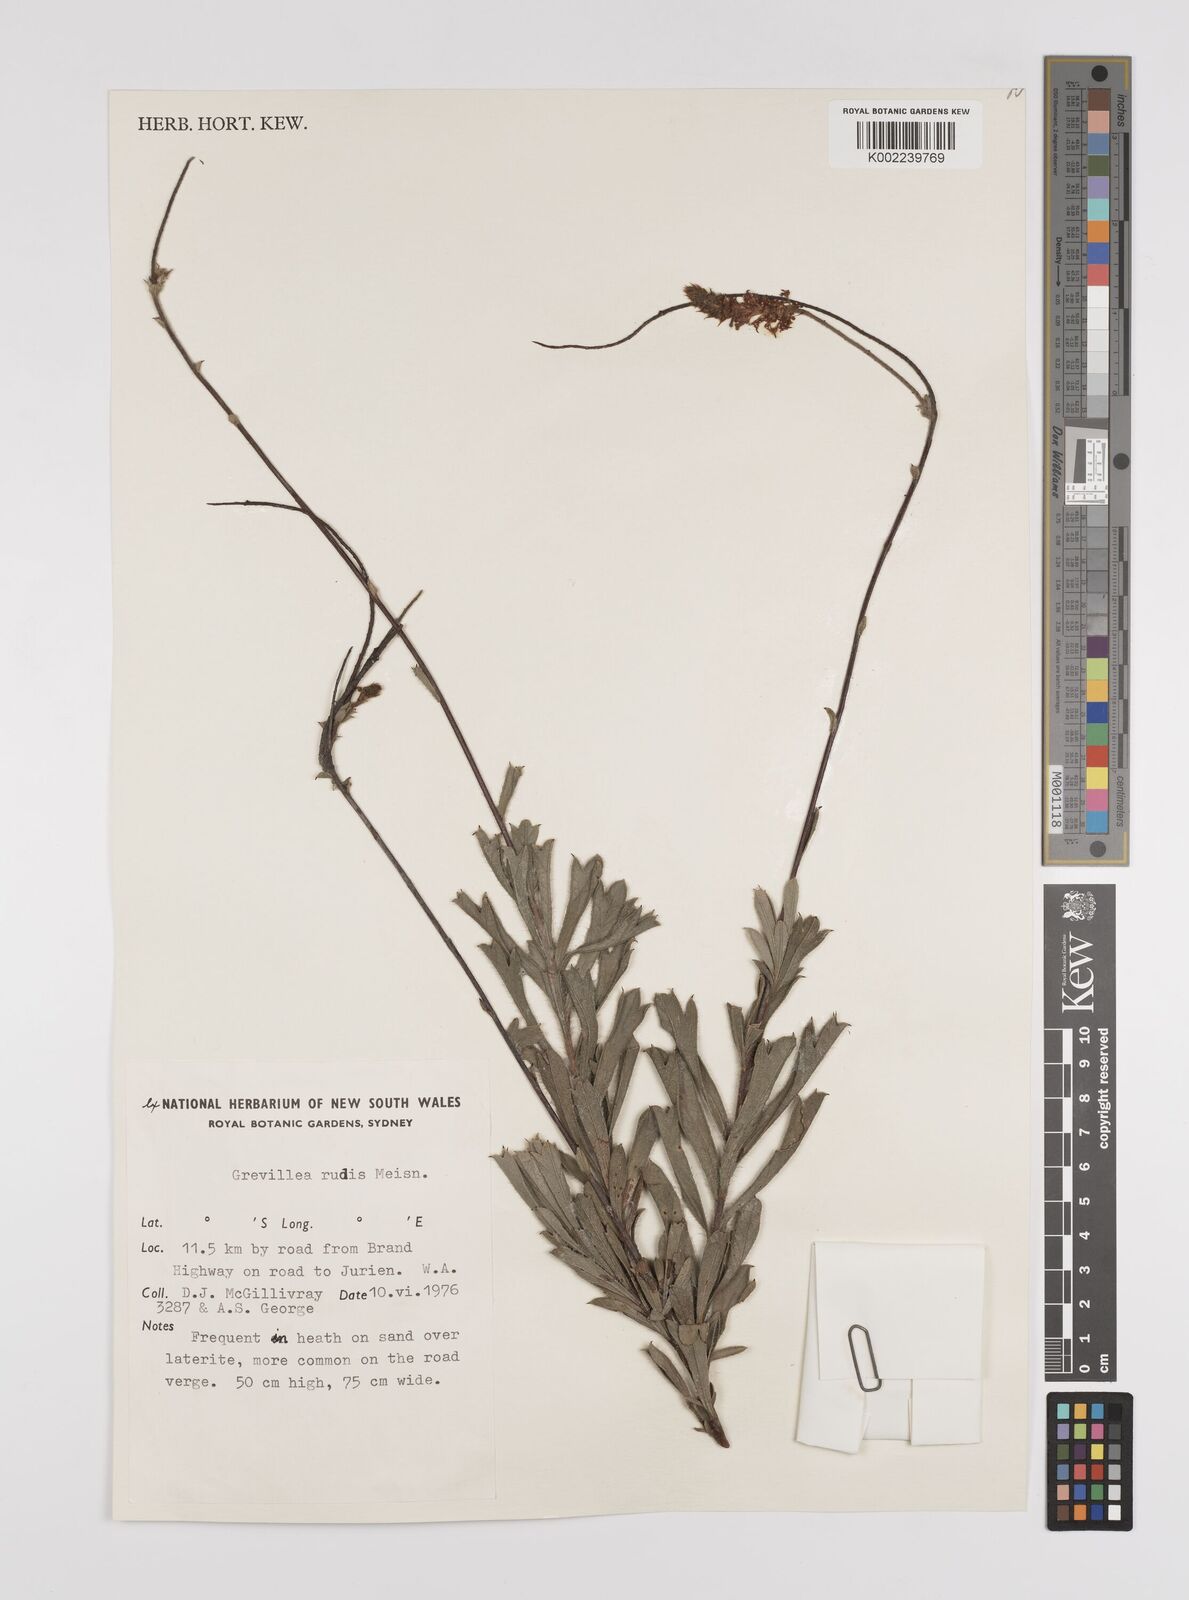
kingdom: Plantae
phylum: Tracheophyta
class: Magnoliopsida
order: Proteales
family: Proteaceae
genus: Grevillea
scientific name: Grevillea rudis
